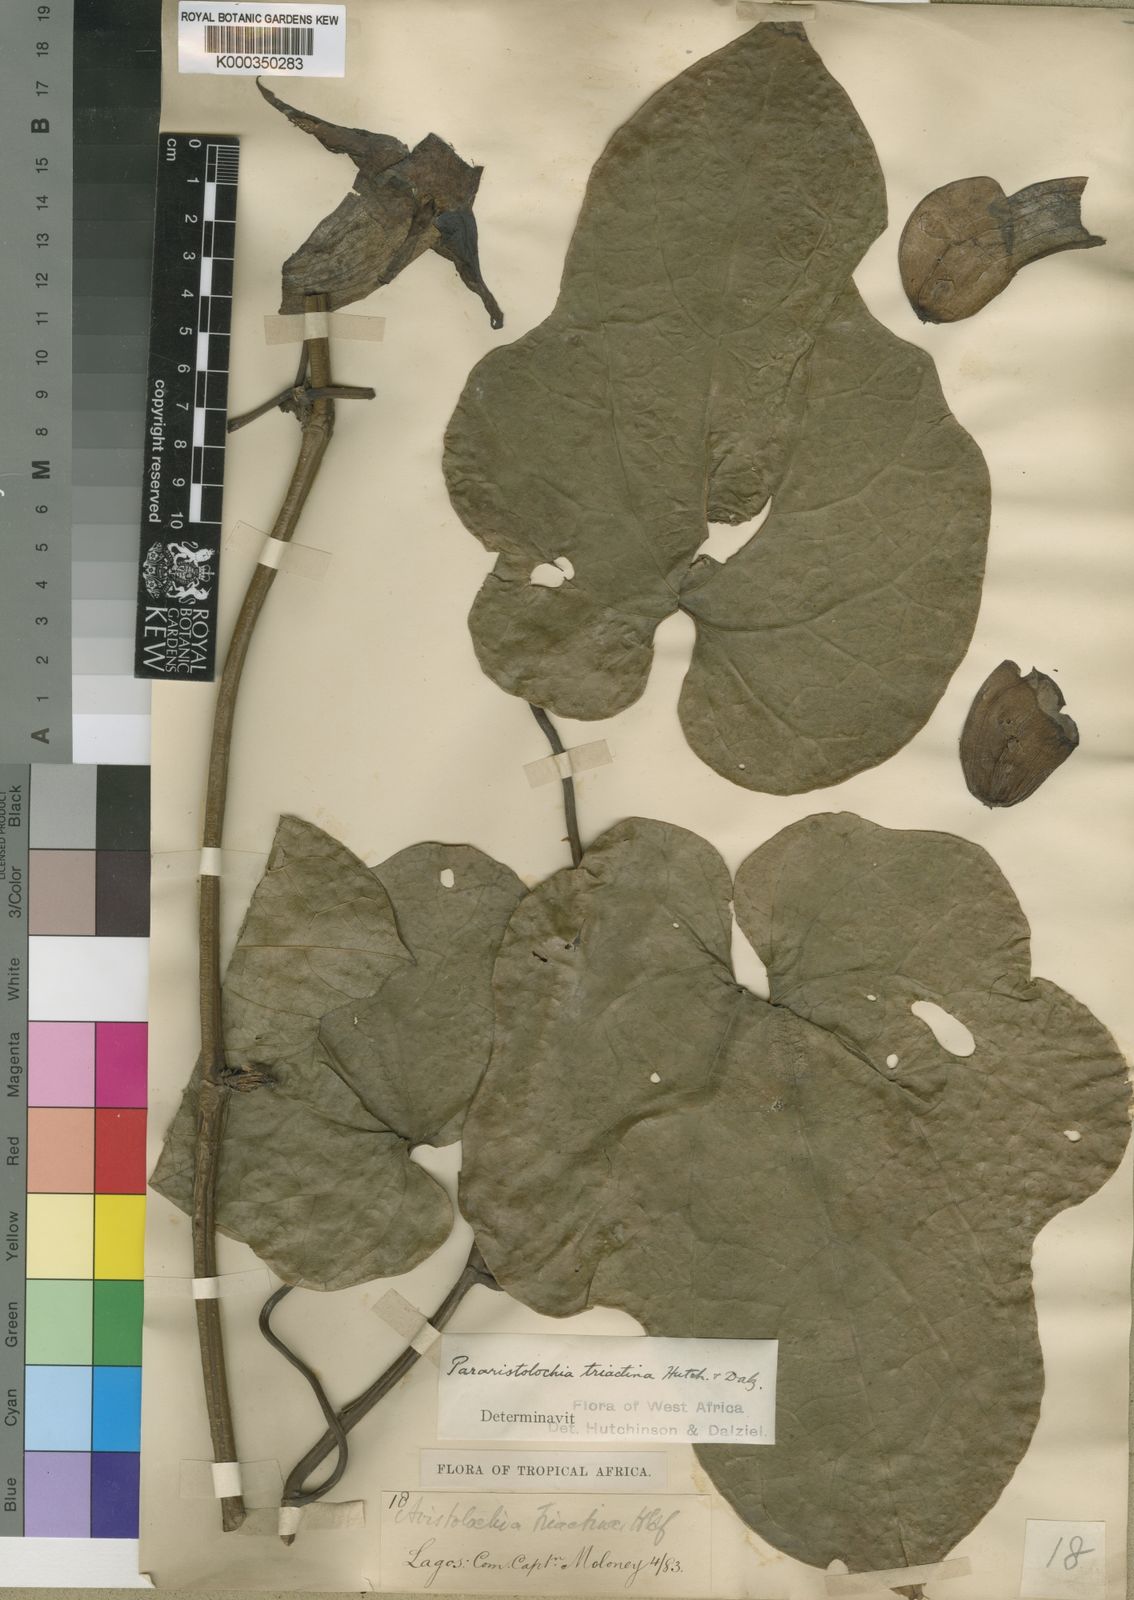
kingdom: Plantae
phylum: Tracheophyta
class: Magnoliopsida
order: Piperales
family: Aristolochiaceae
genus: Aristolochia
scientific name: Aristolochia triactina
